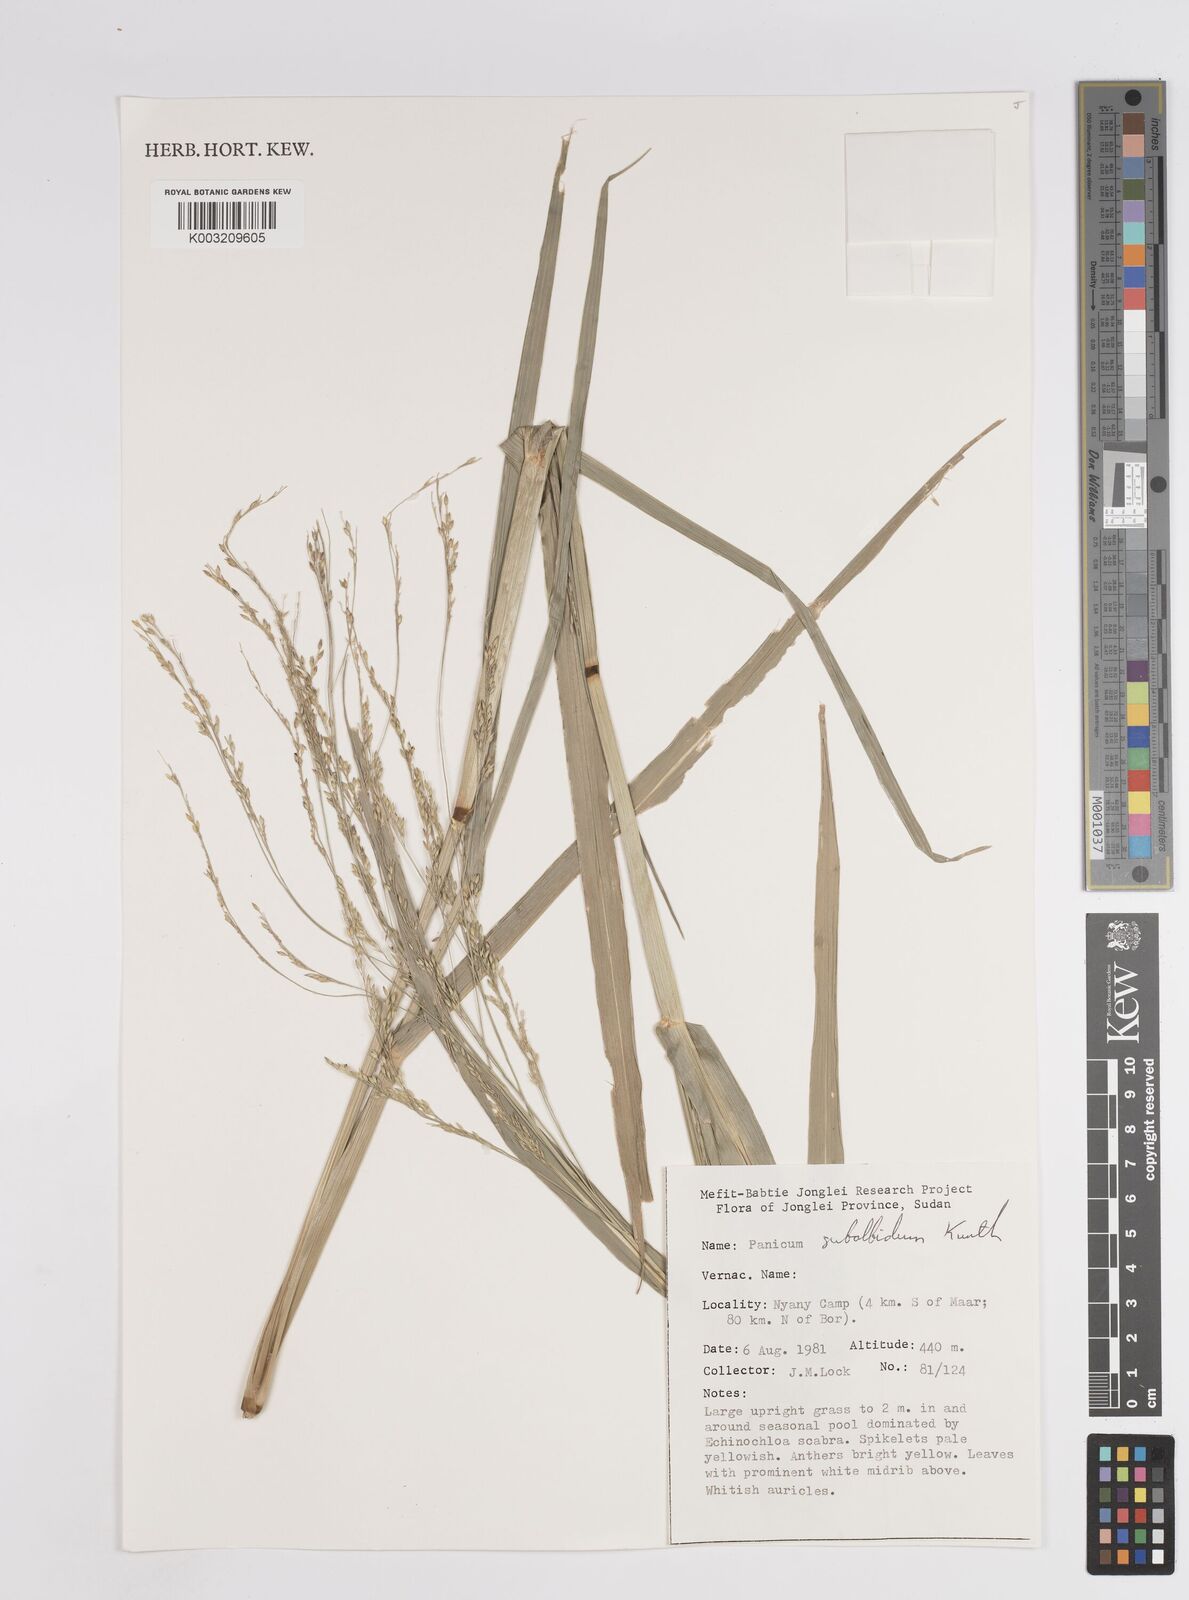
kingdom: Plantae
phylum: Tracheophyta
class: Liliopsida
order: Poales
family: Poaceae
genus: Panicum
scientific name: Panicum subalbidum
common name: Elbow buffalo grass
